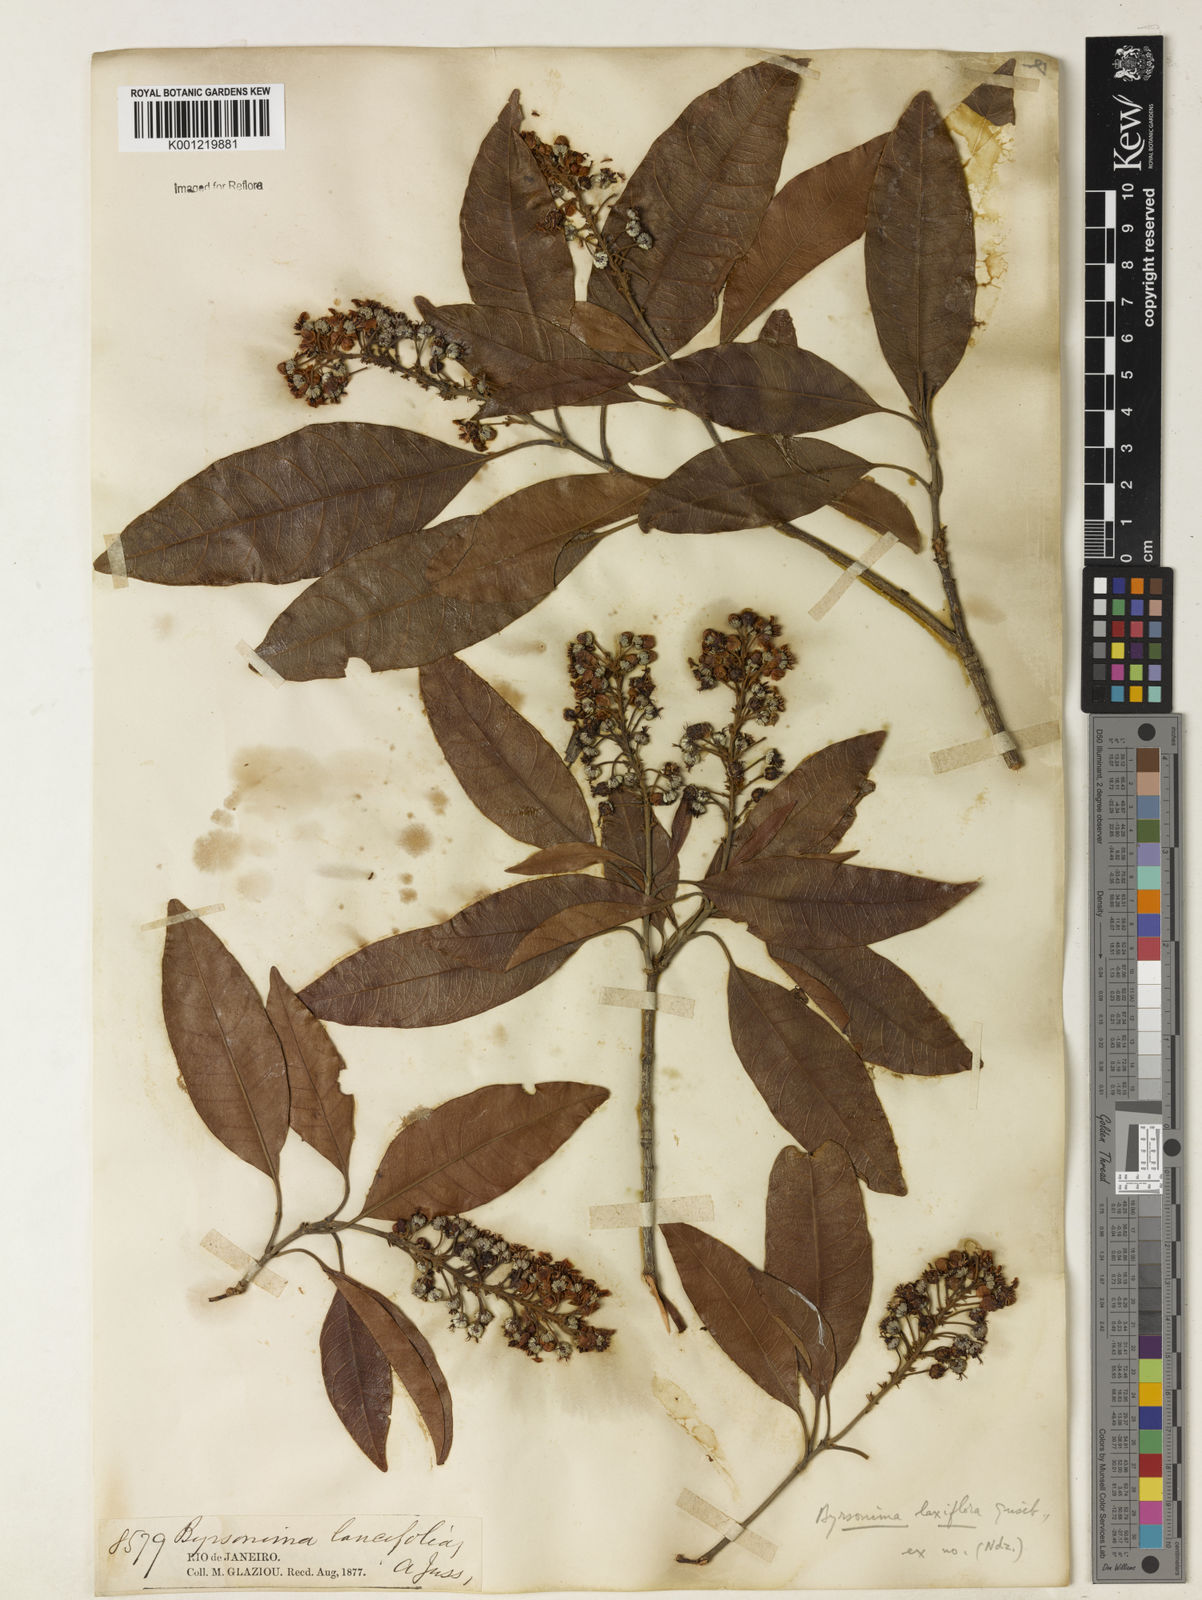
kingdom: Plantae
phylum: Tracheophyta
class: Magnoliopsida
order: Malpighiales
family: Malpighiaceae
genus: Byrsonima
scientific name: Byrsonima laxiflora
